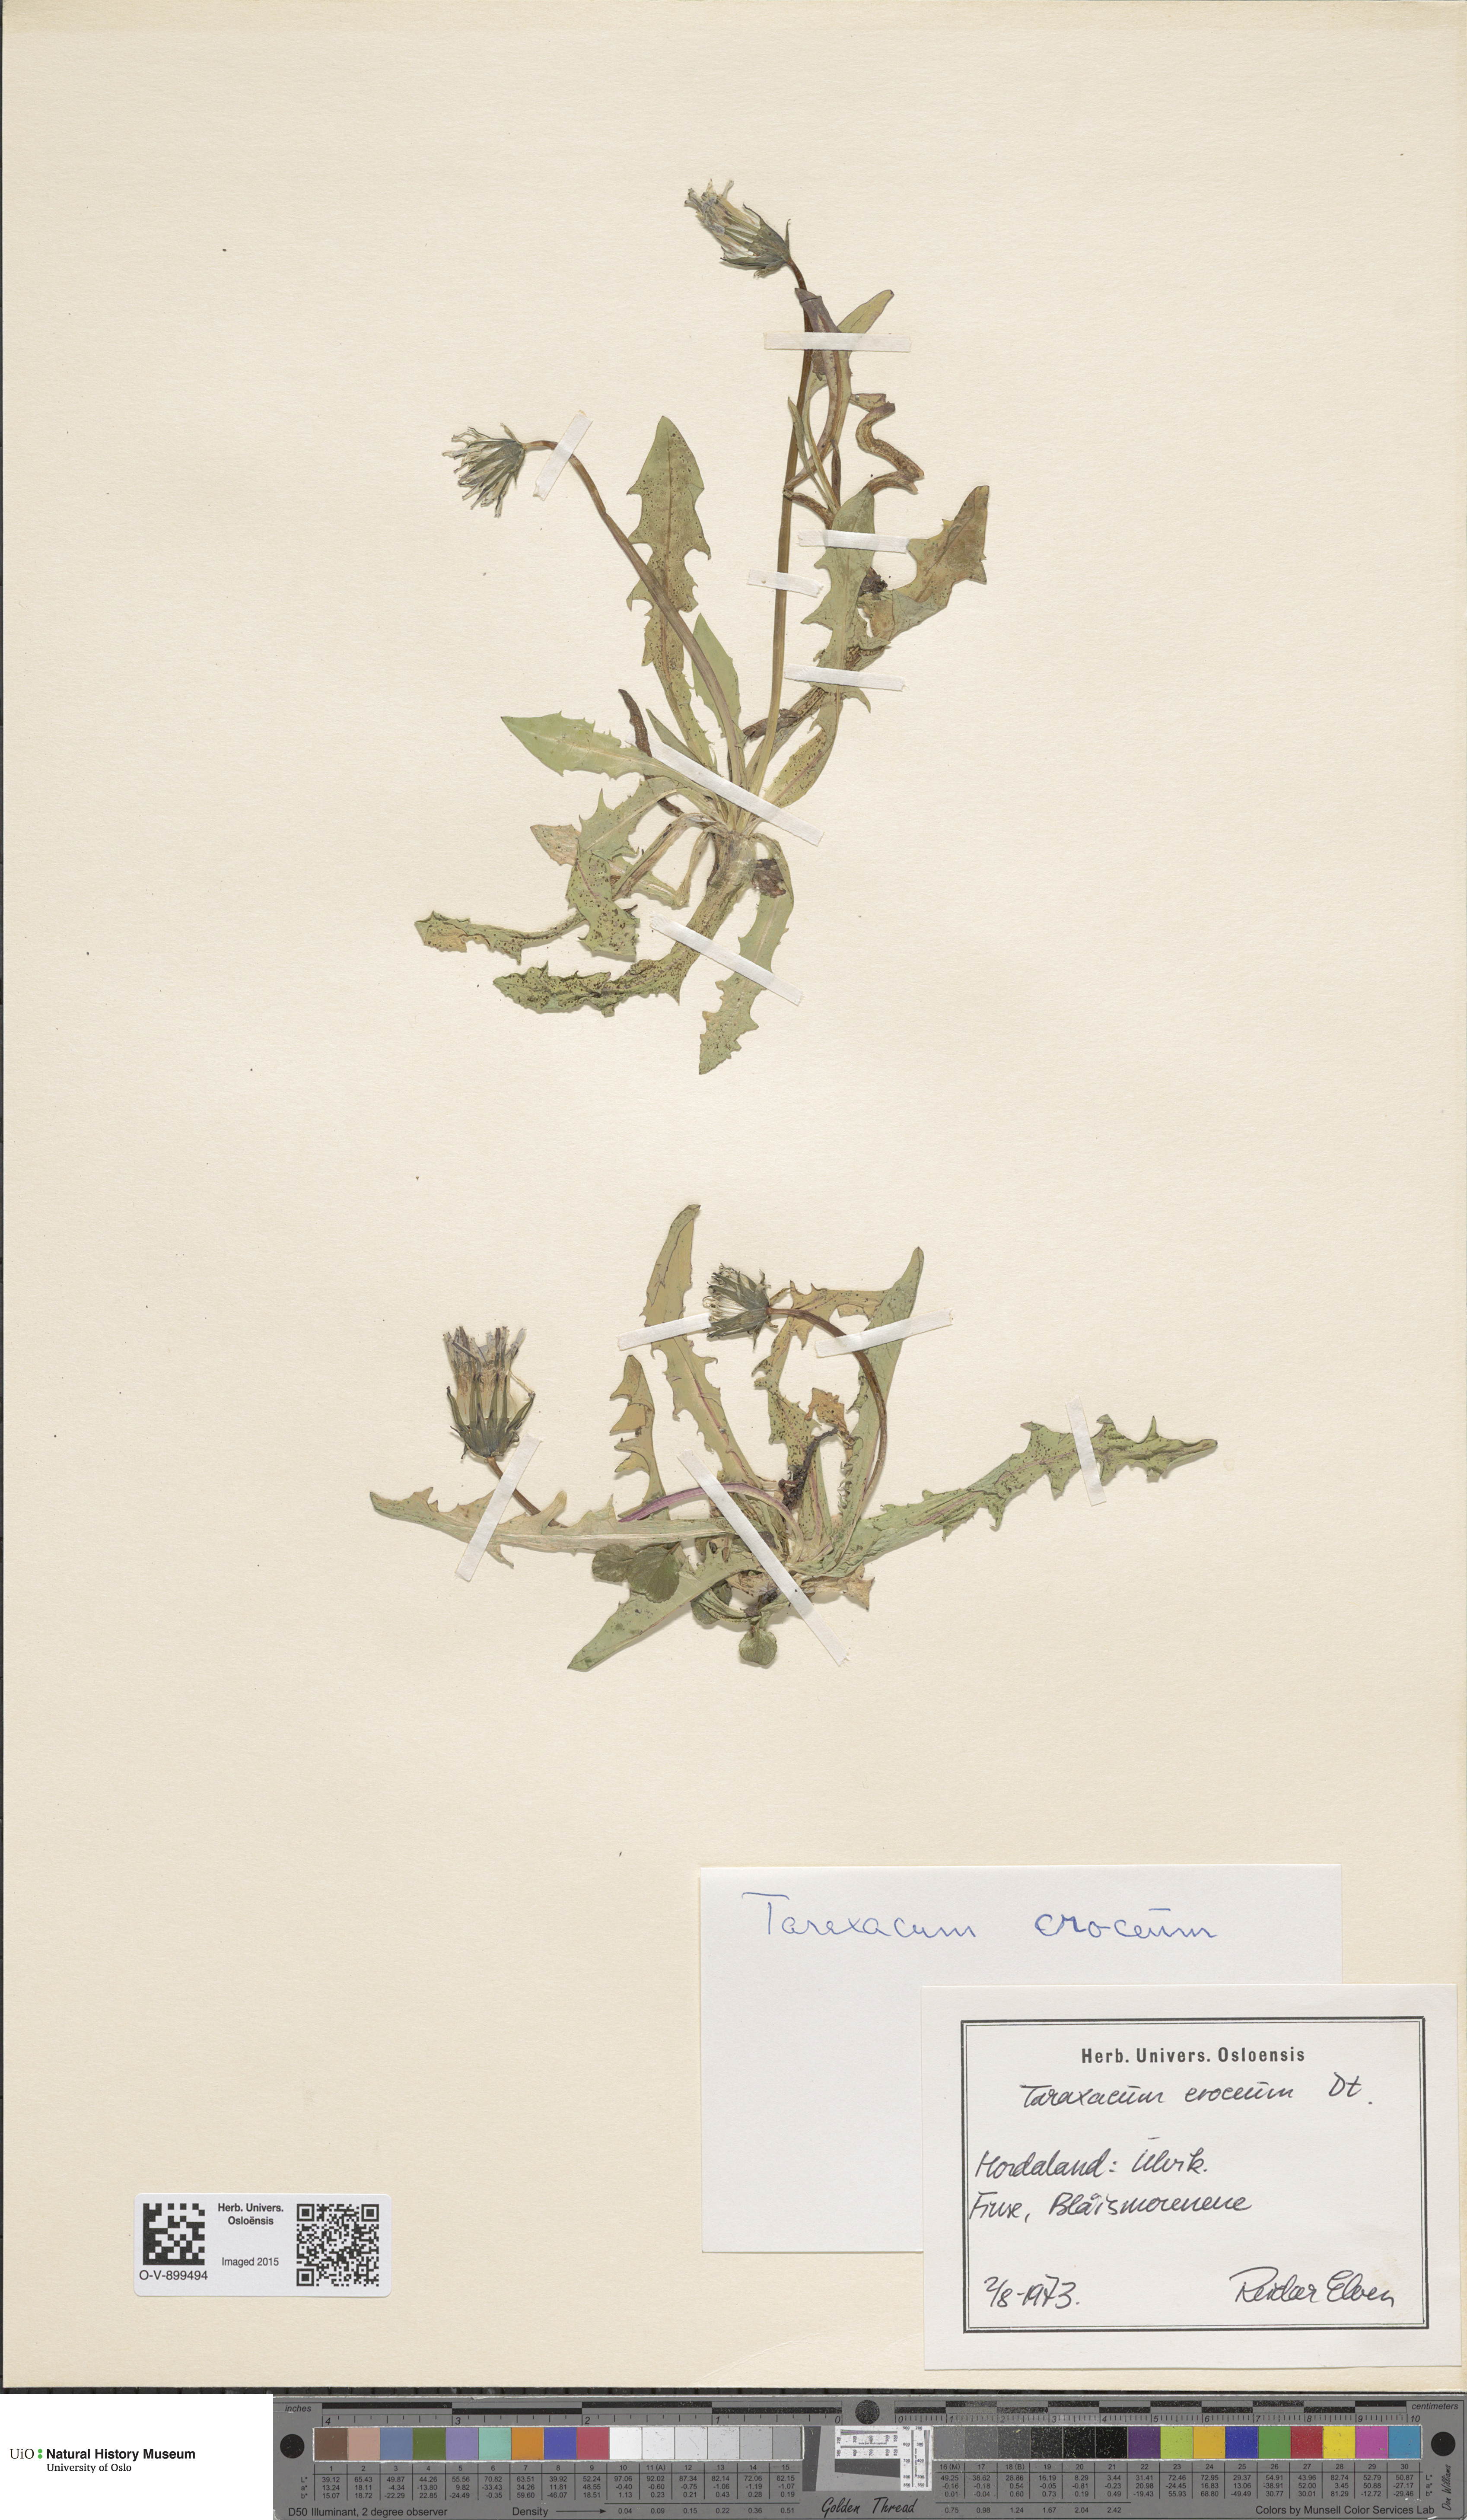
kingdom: Plantae
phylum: Tracheophyta
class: Magnoliopsida
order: Asterales
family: Asteraceae
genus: Taraxacum
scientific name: Taraxacum croceum
